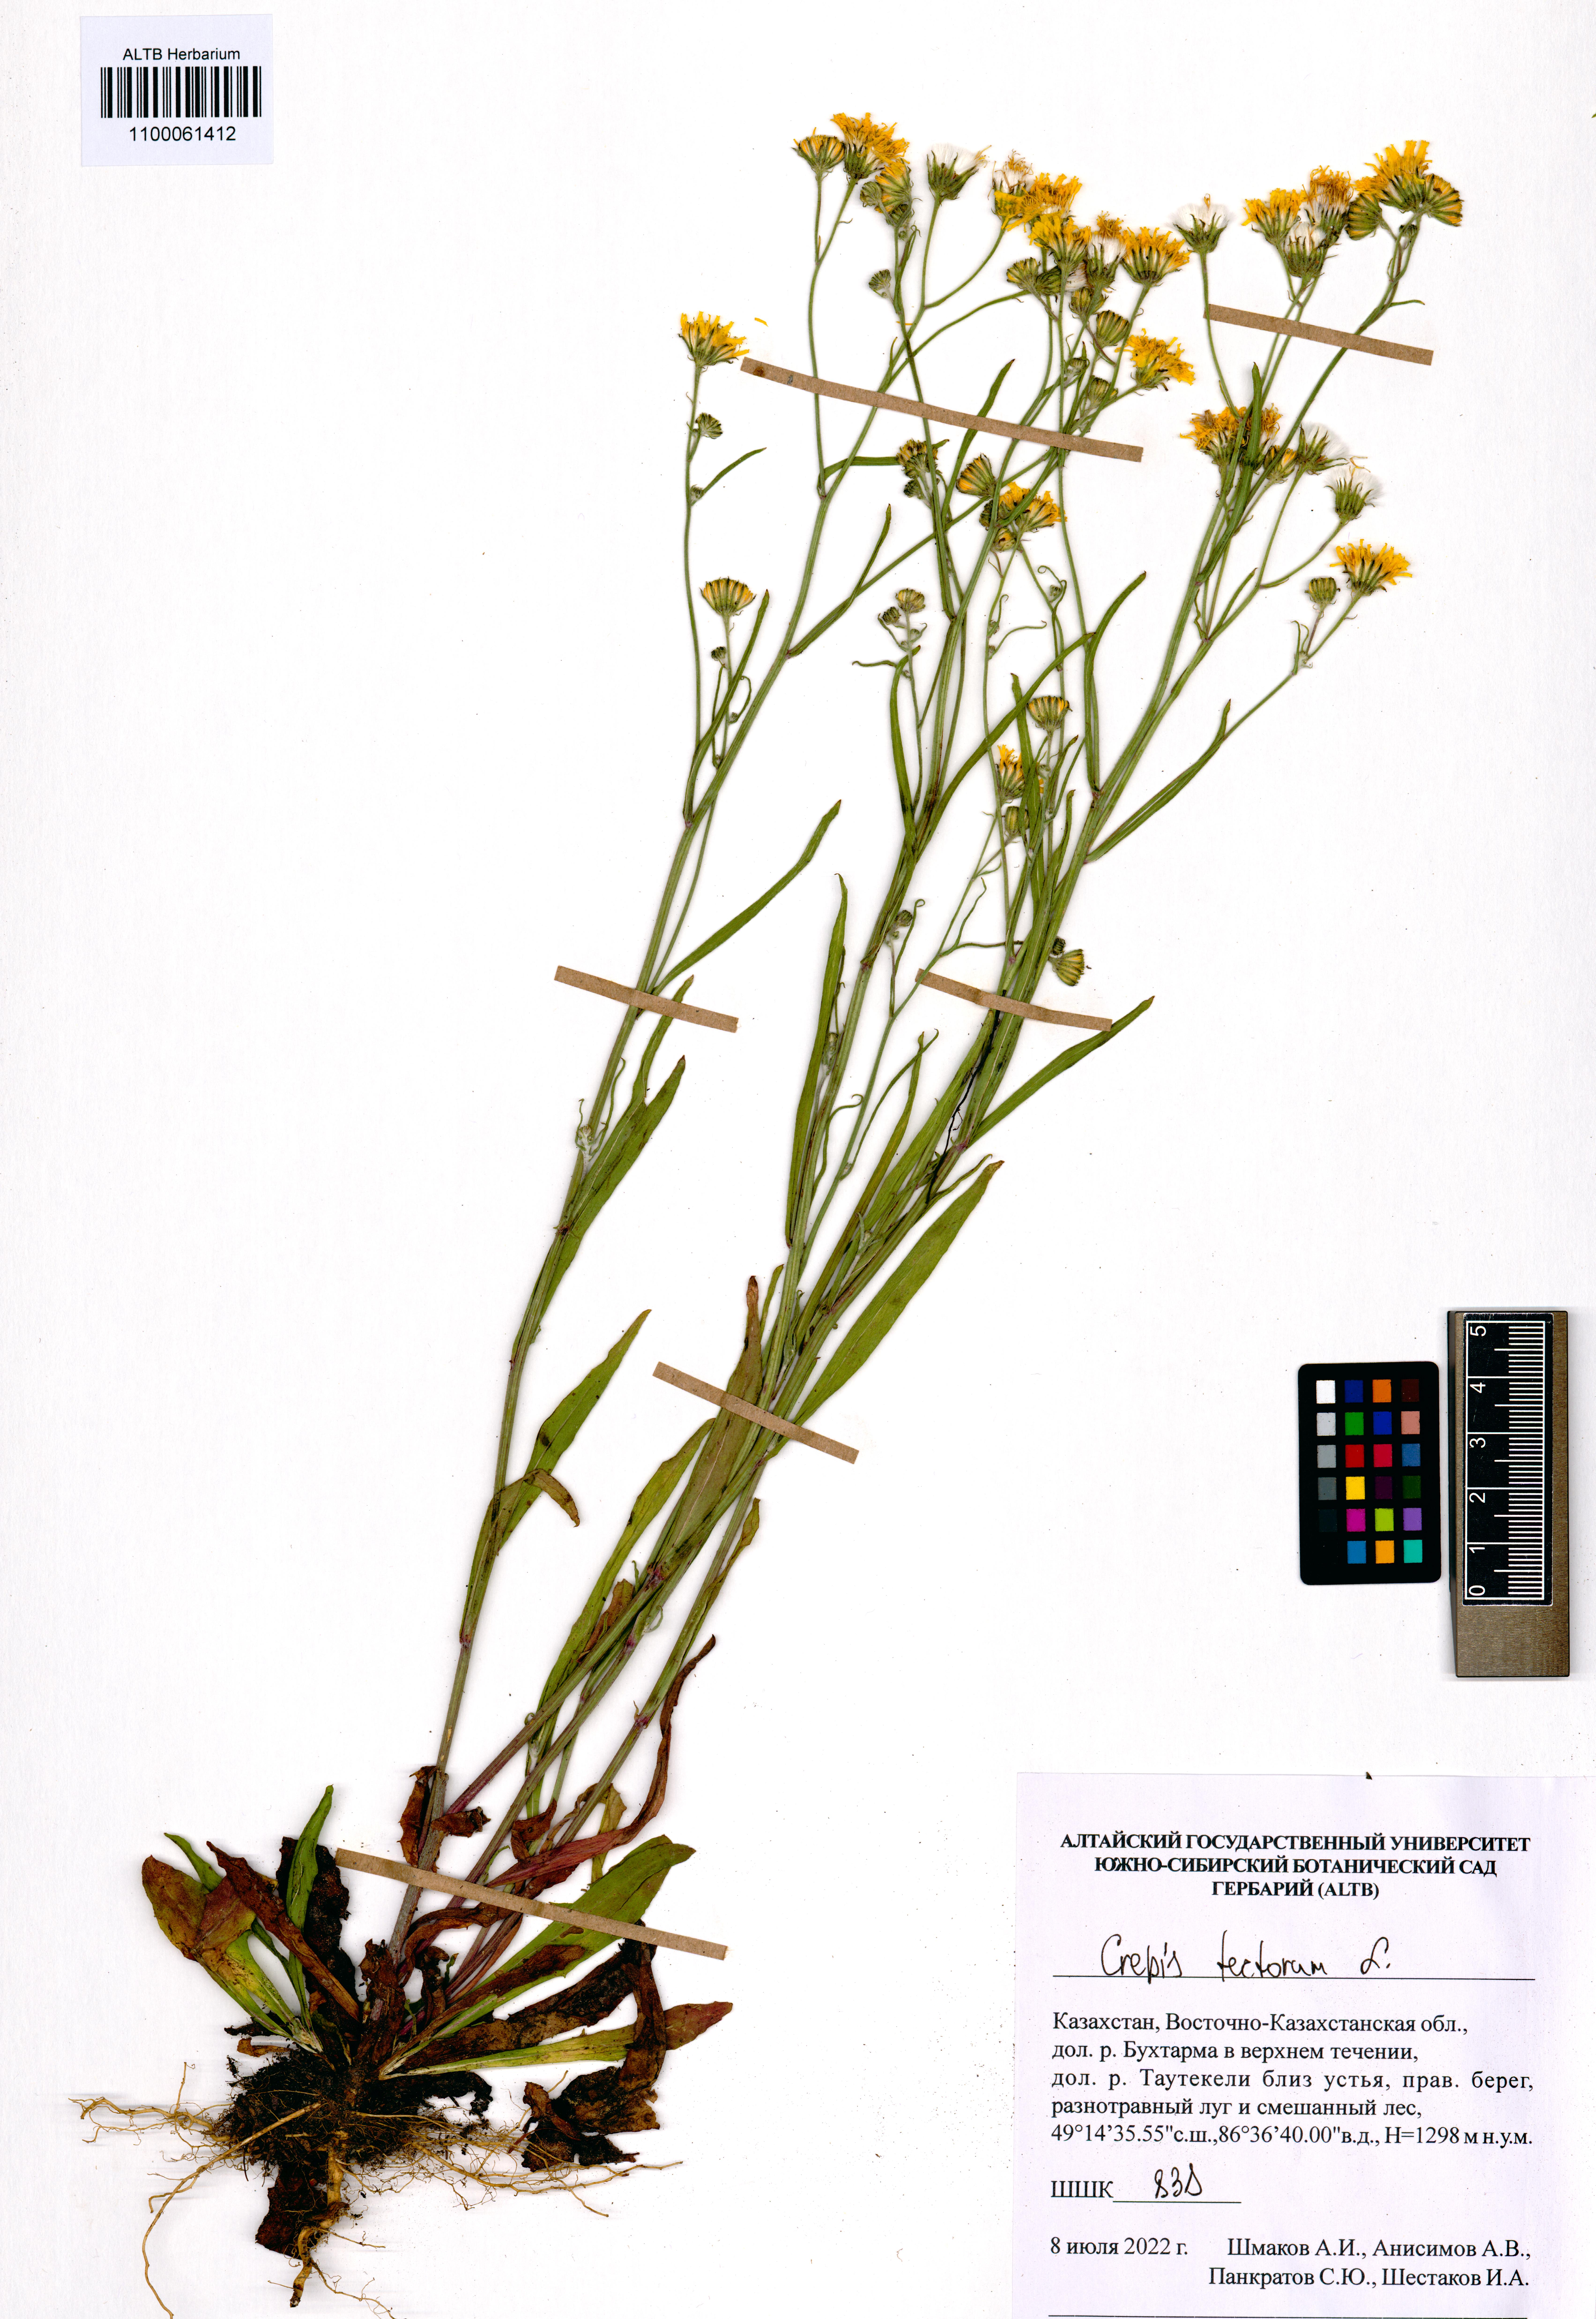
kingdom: Plantae
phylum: Tracheophyta
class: Magnoliopsida
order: Asterales
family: Asteraceae
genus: Crepis
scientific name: Crepis tectorum
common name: Narrow-leaved hawk's-beard
